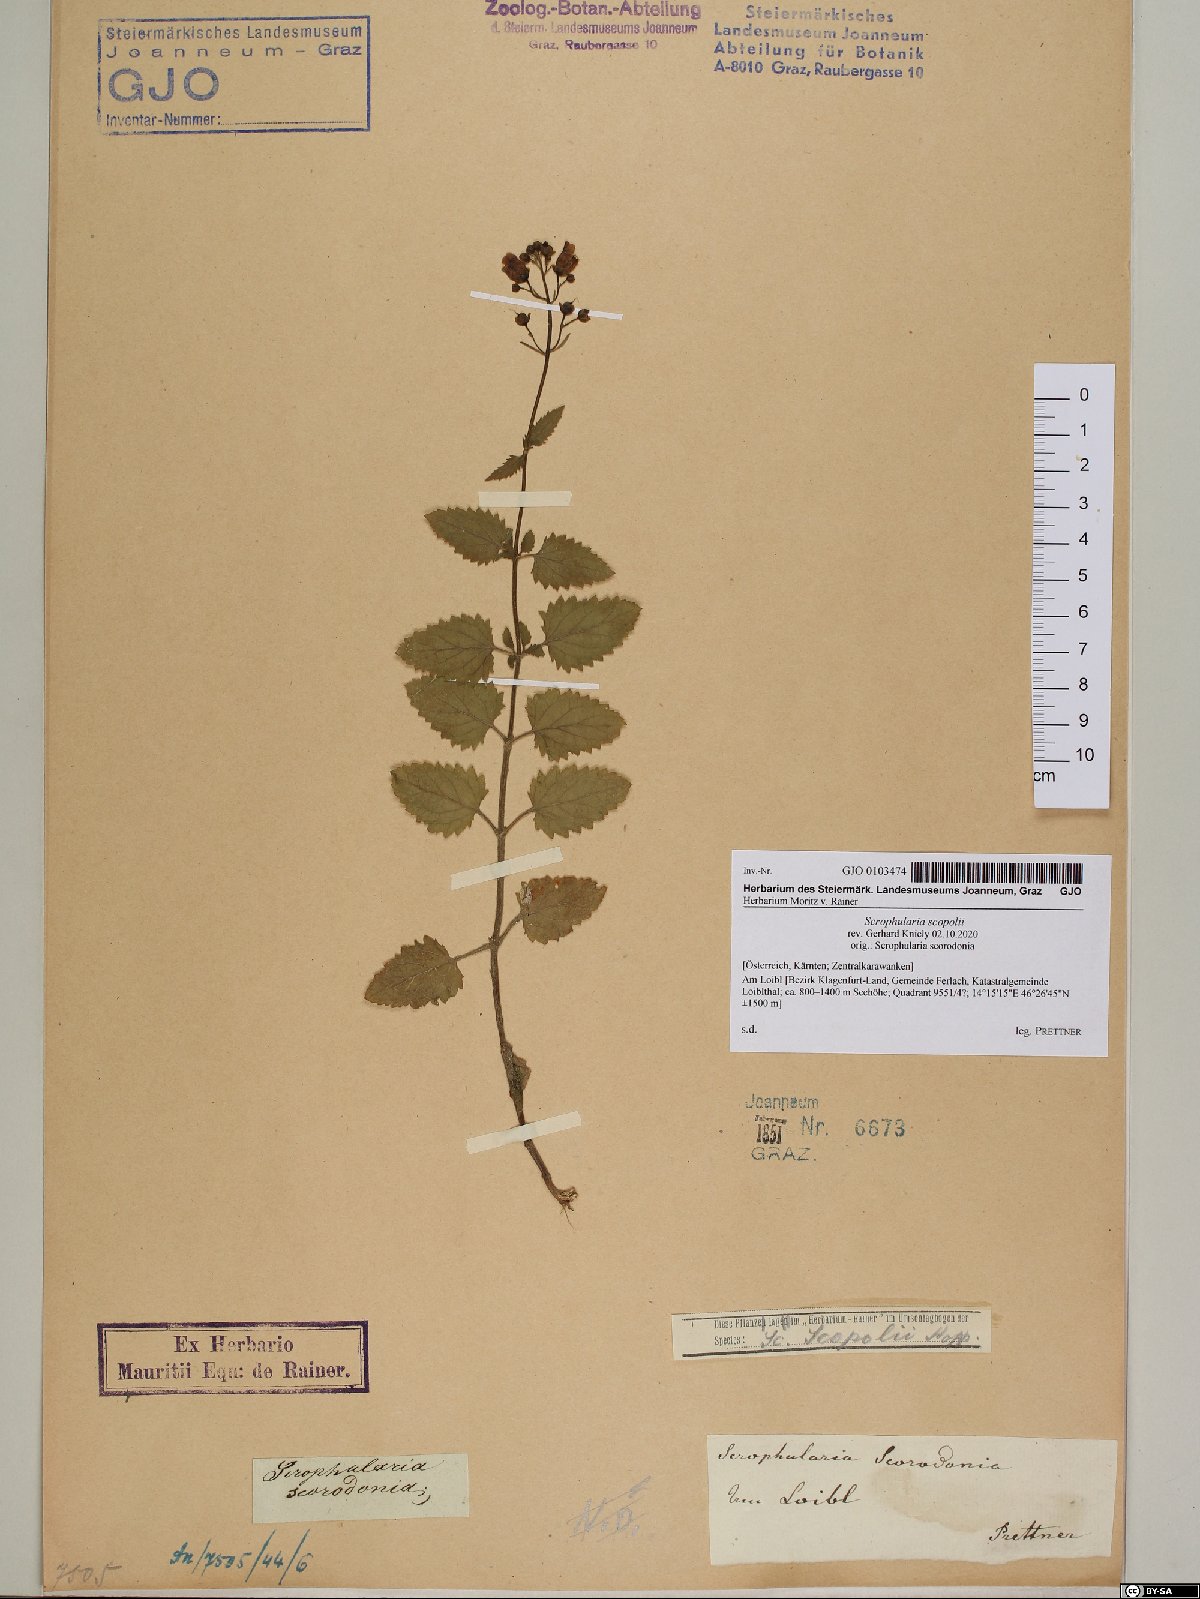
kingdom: Plantae
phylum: Tracheophyta
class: Magnoliopsida
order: Lamiales
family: Scrophulariaceae
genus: Scrophularia
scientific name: Scrophularia scopolii
